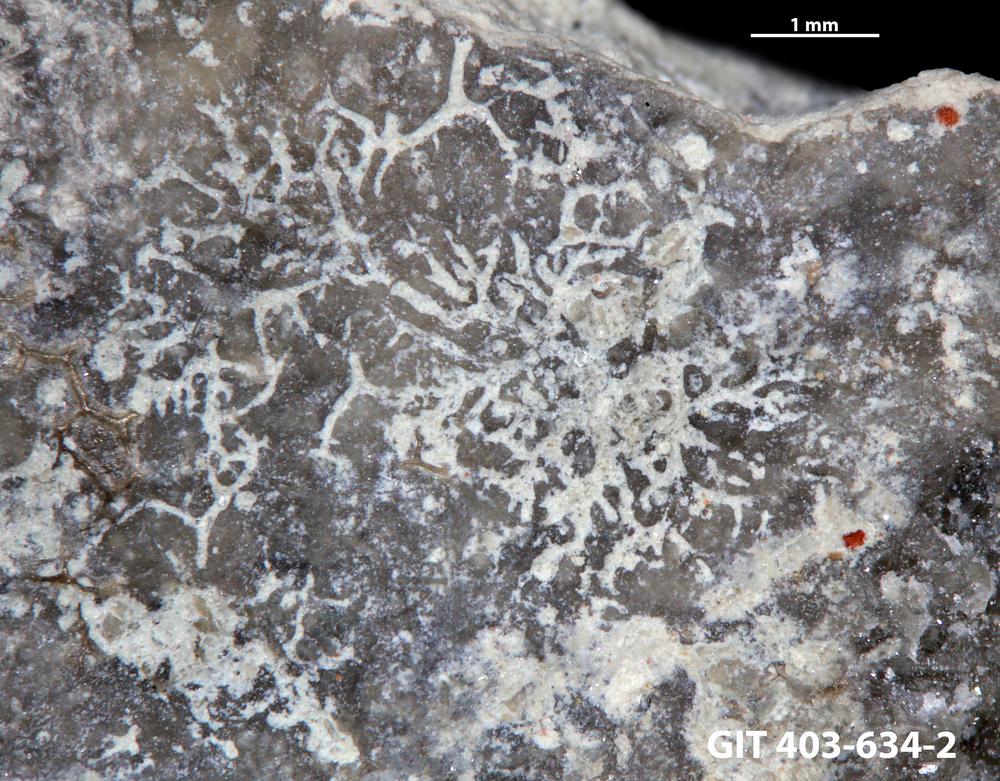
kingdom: Animalia
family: Dendrinidae
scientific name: Dendrinidae
